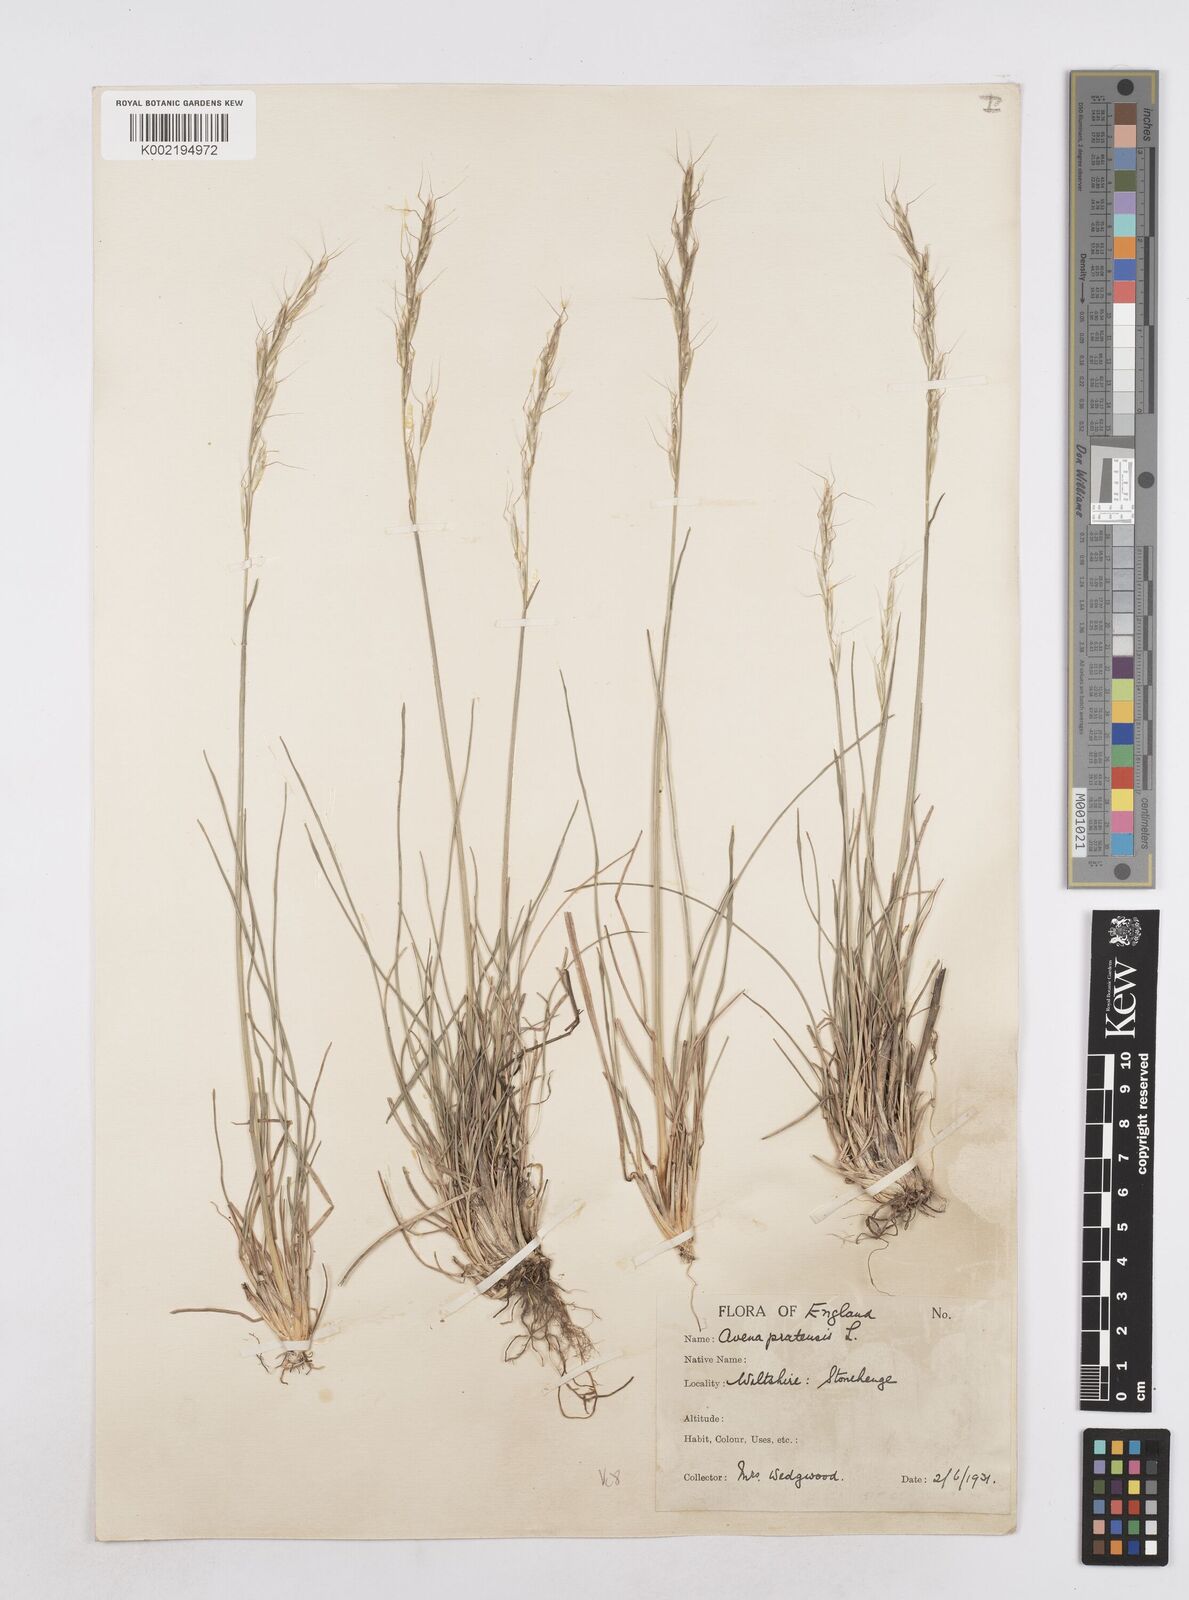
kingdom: Plantae
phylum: Tracheophyta
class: Liliopsida
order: Poales
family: Poaceae
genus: Helictochloa
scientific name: Helictochloa pratensis
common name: Meadow oat grass
